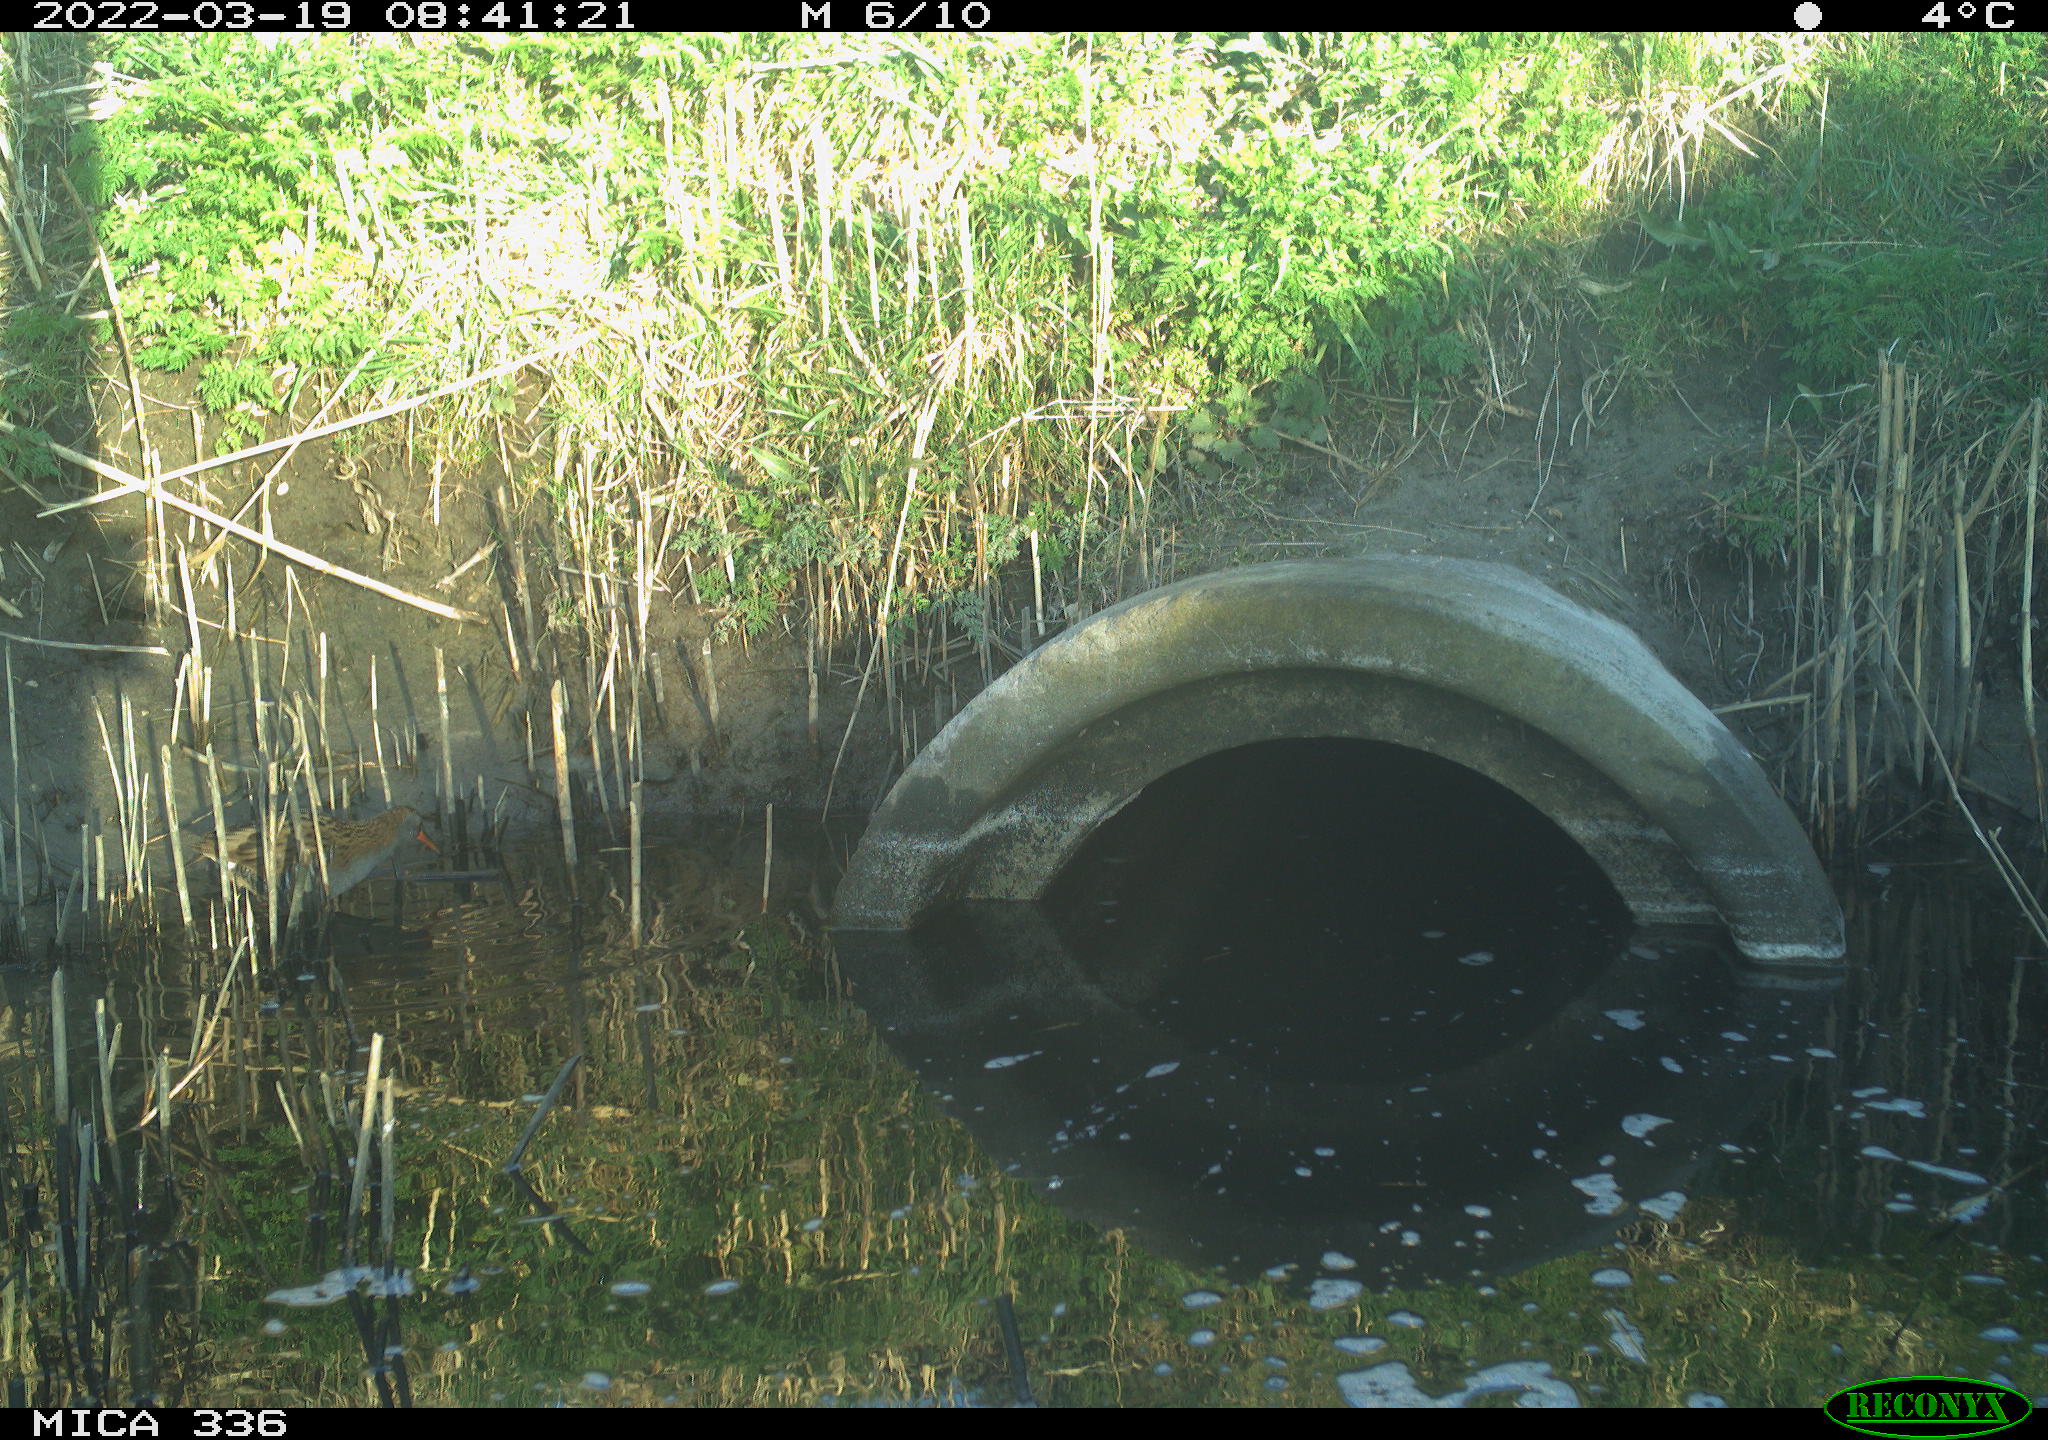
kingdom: Animalia
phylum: Chordata
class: Aves
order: Gruiformes
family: Rallidae
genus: Rallus
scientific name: Rallus aquaticus
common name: Water rail
